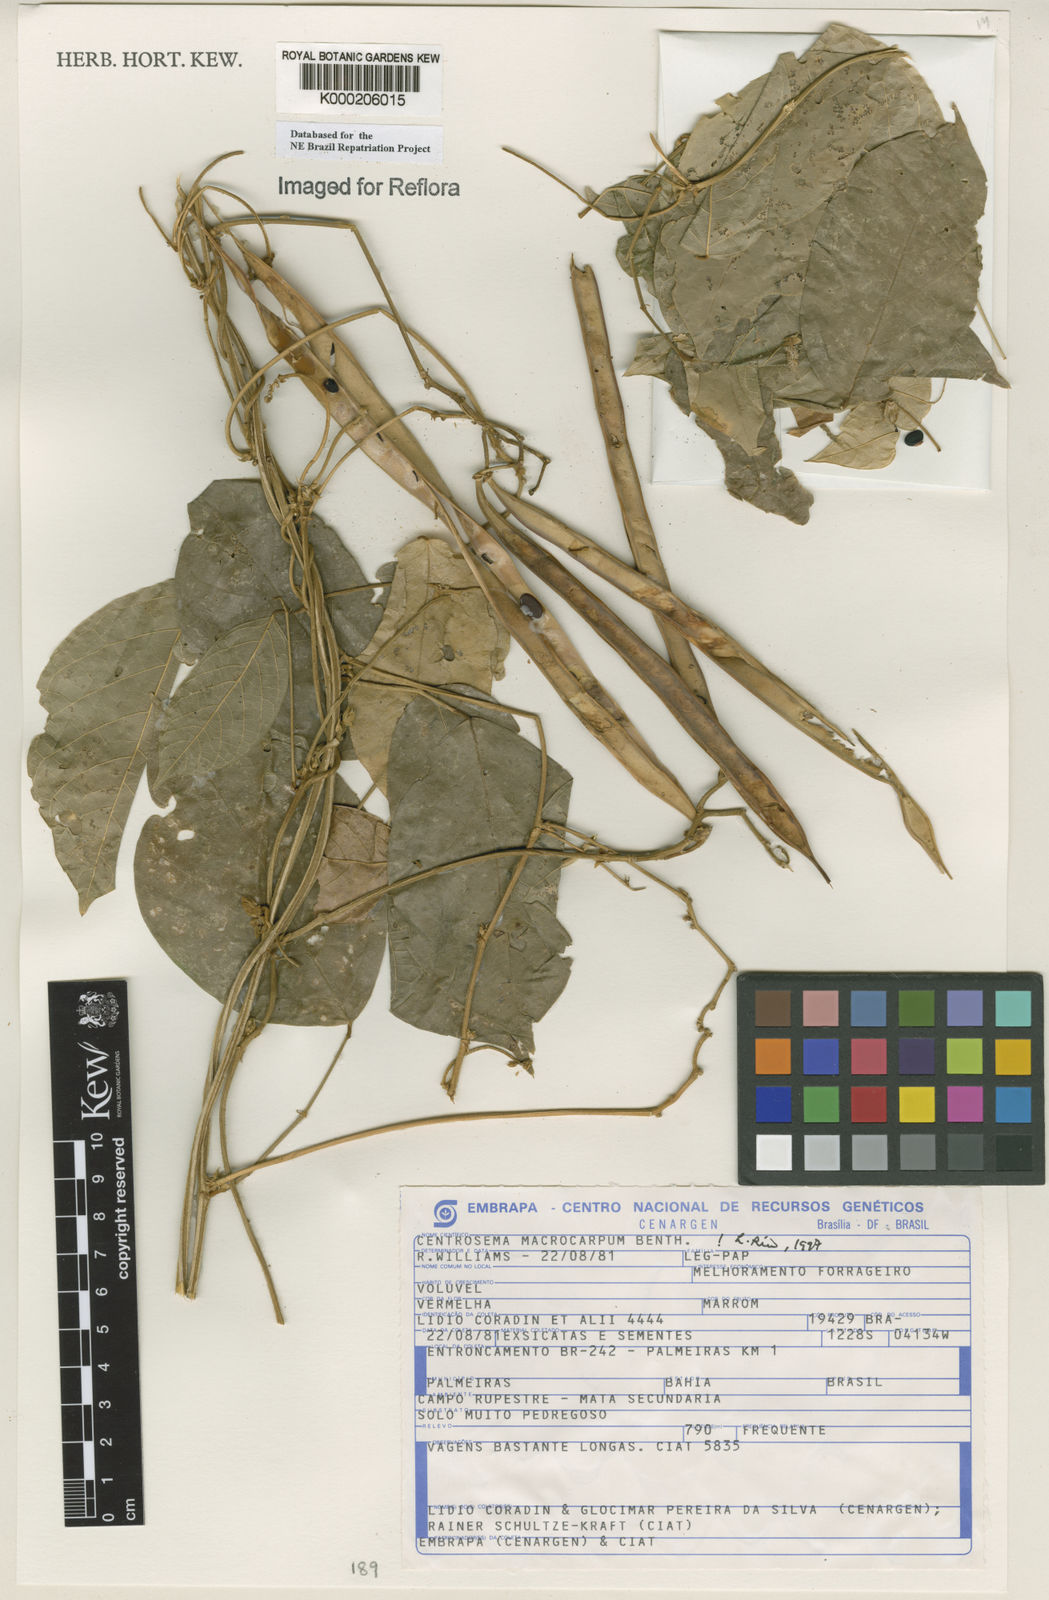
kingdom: Plantae
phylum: Tracheophyta
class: Magnoliopsida
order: Fabales
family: Fabaceae
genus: Centrosema
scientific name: Centrosema macrocarpum
